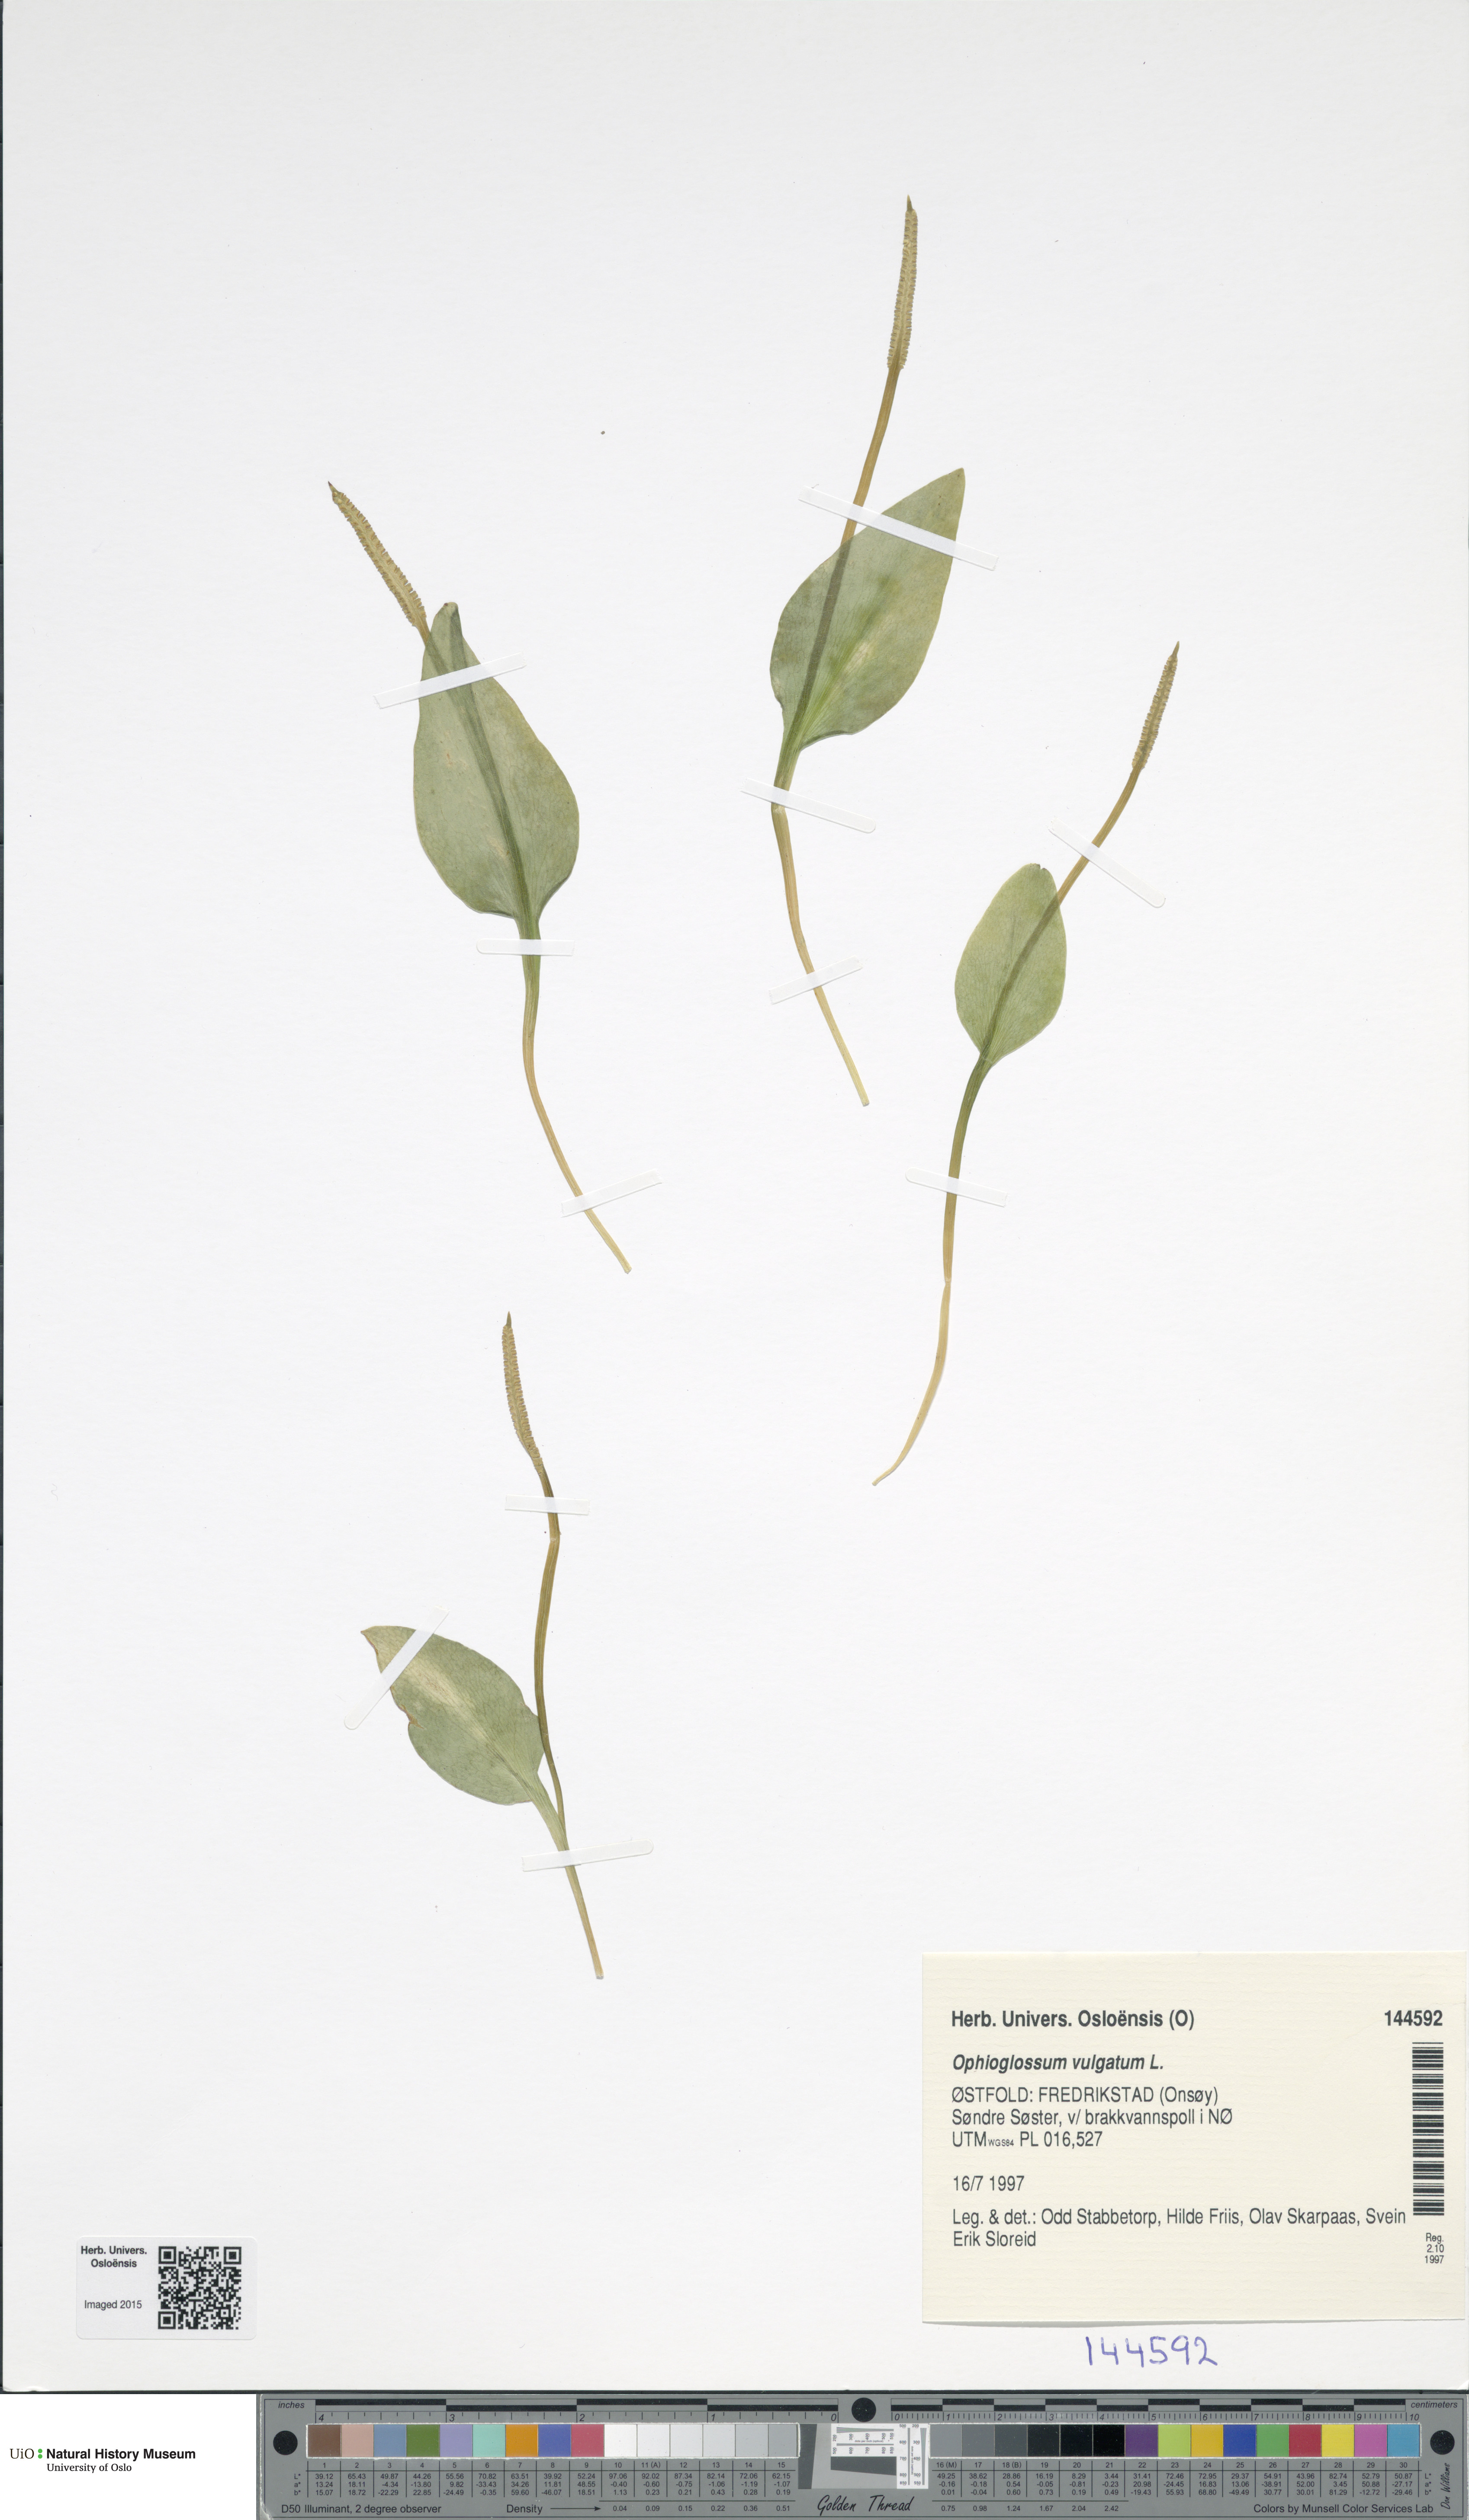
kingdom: Plantae
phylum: Tracheophyta
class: Polypodiopsida
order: Ophioglossales
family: Ophioglossaceae
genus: Ophioglossum
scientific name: Ophioglossum vulgatum
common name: Adder's-tongue
